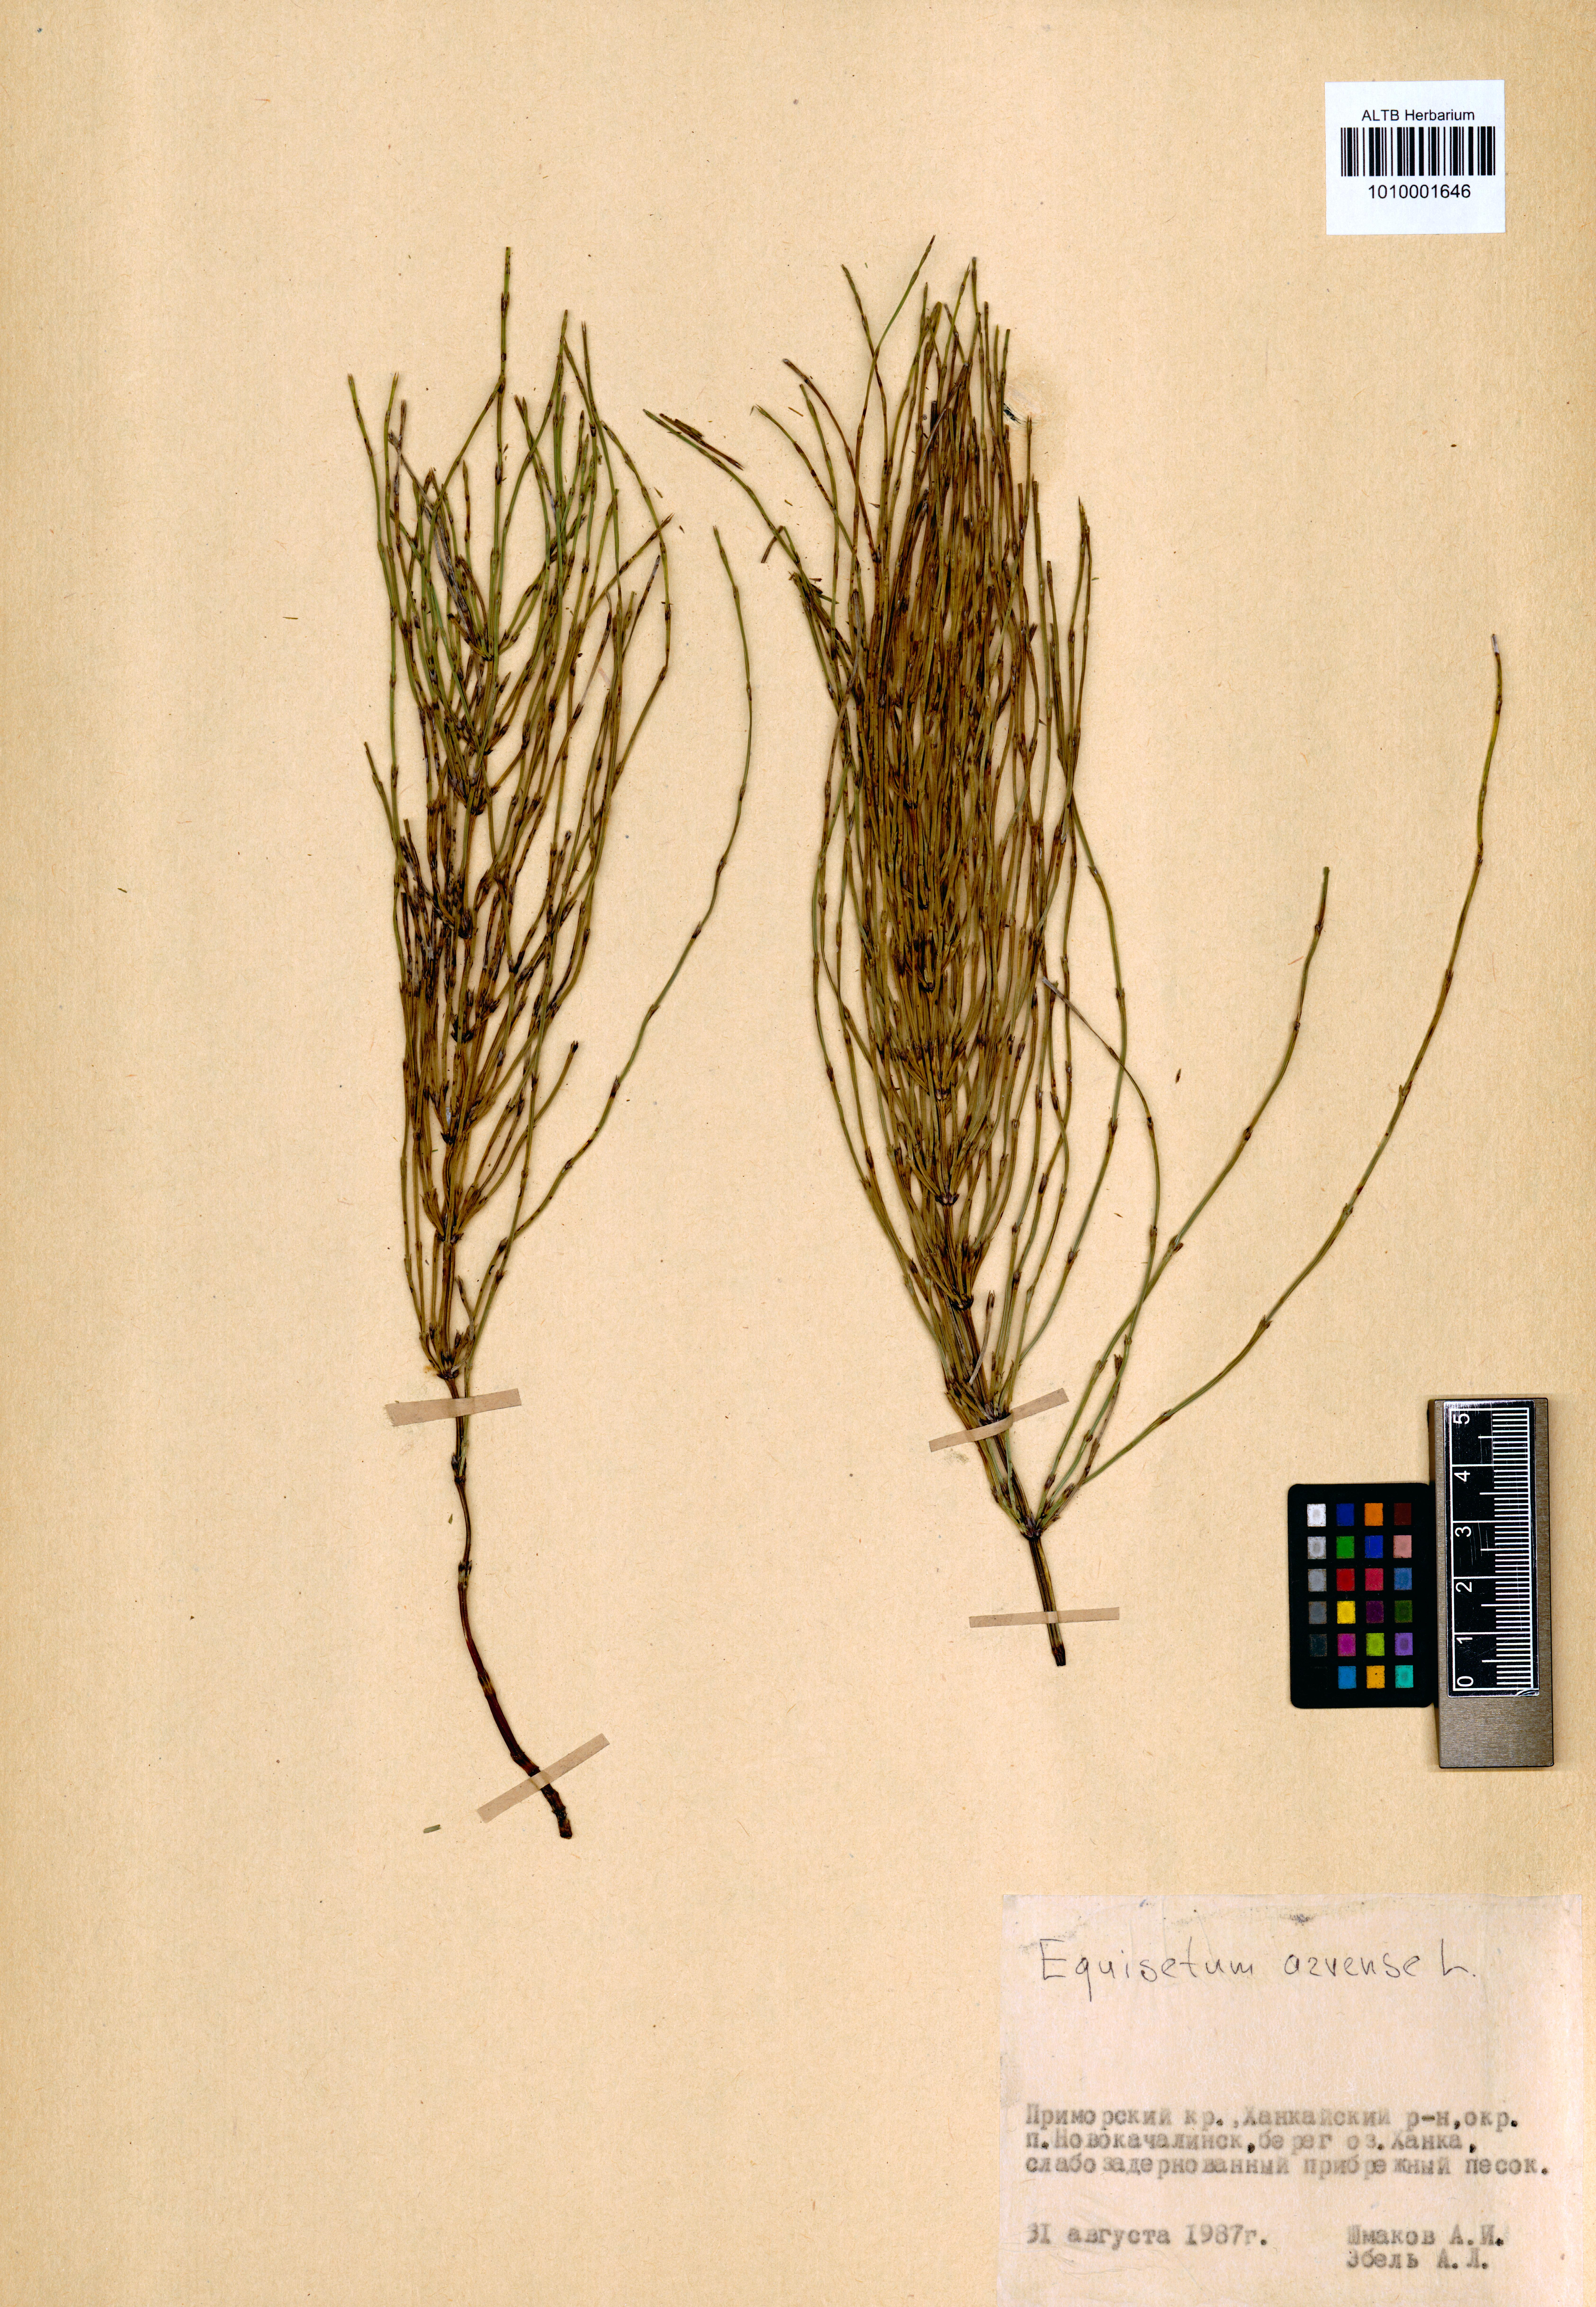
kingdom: Plantae
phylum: Tracheophyta
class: Polypodiopsida
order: Equisetales
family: Equisetaceae
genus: Equisetum
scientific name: Equisetum arvense
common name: Field horsetail
